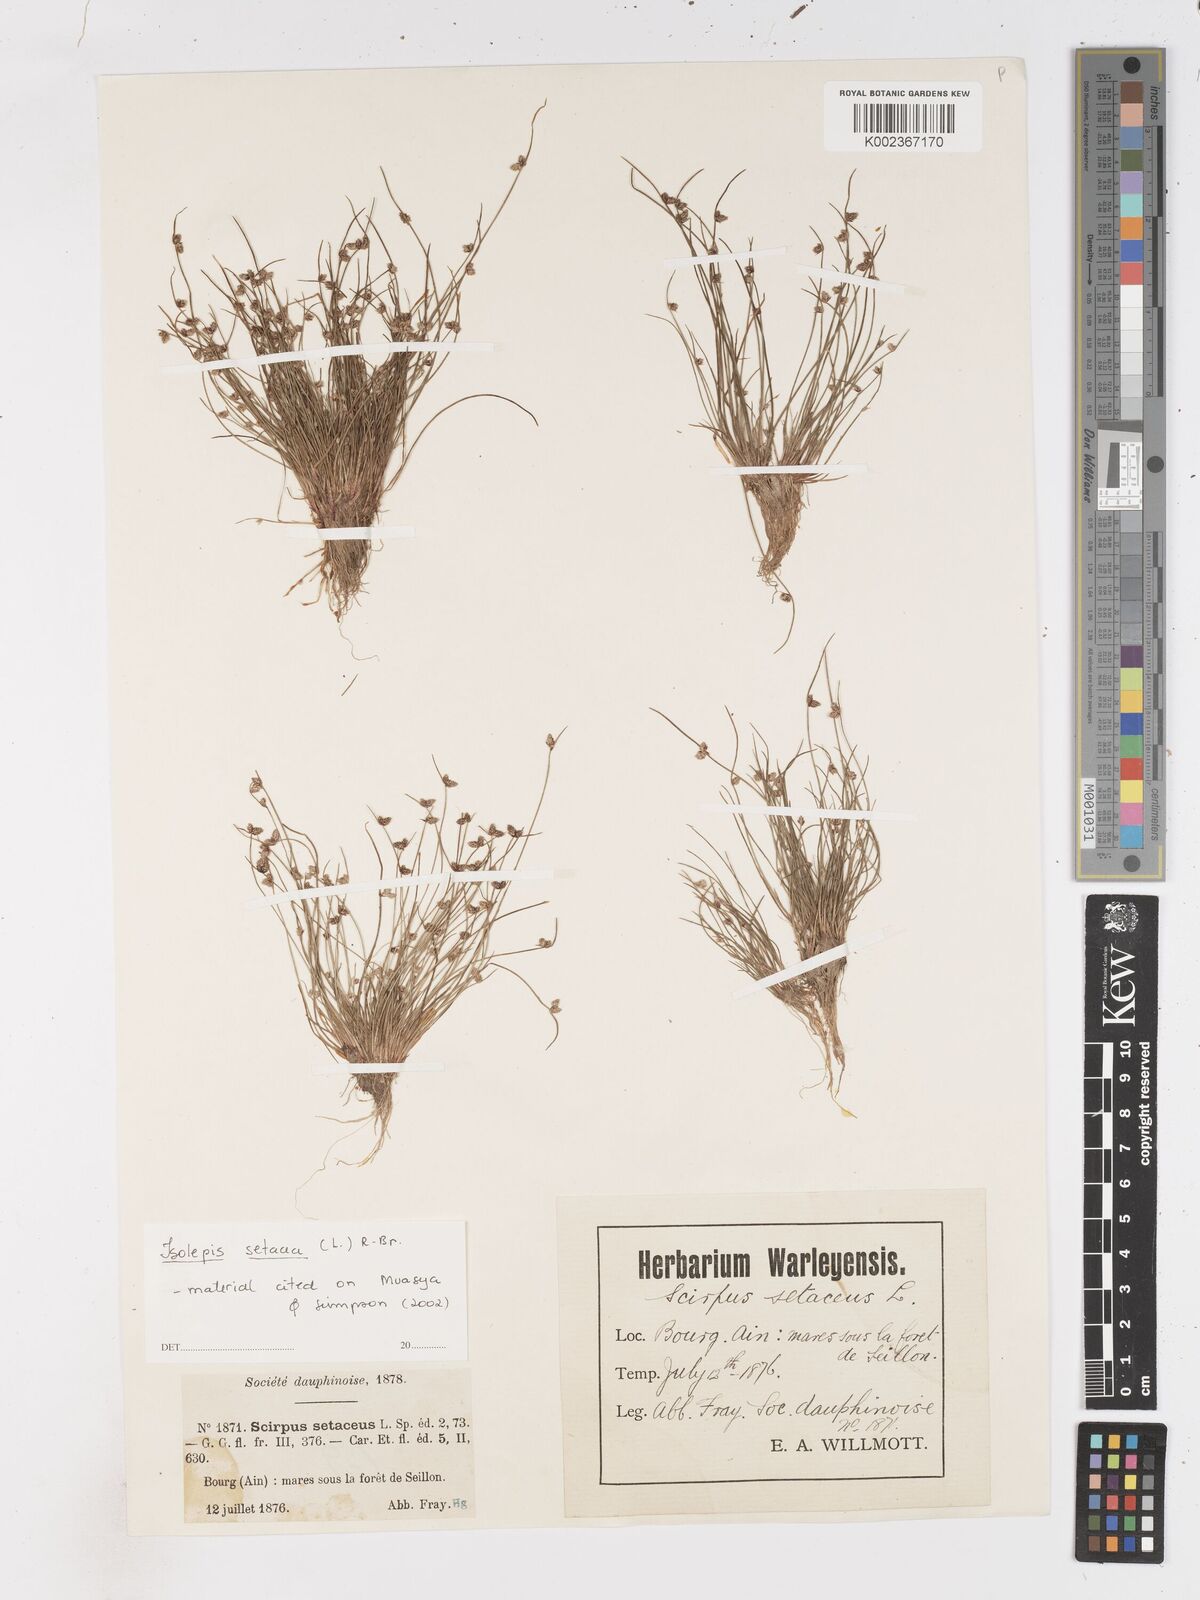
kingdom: Plantae
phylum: Tracheophyta
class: Liliopsida
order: Poales
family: Cyperaceae
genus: Isolepis
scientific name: Isolepis setacea
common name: Bristle club-rush
